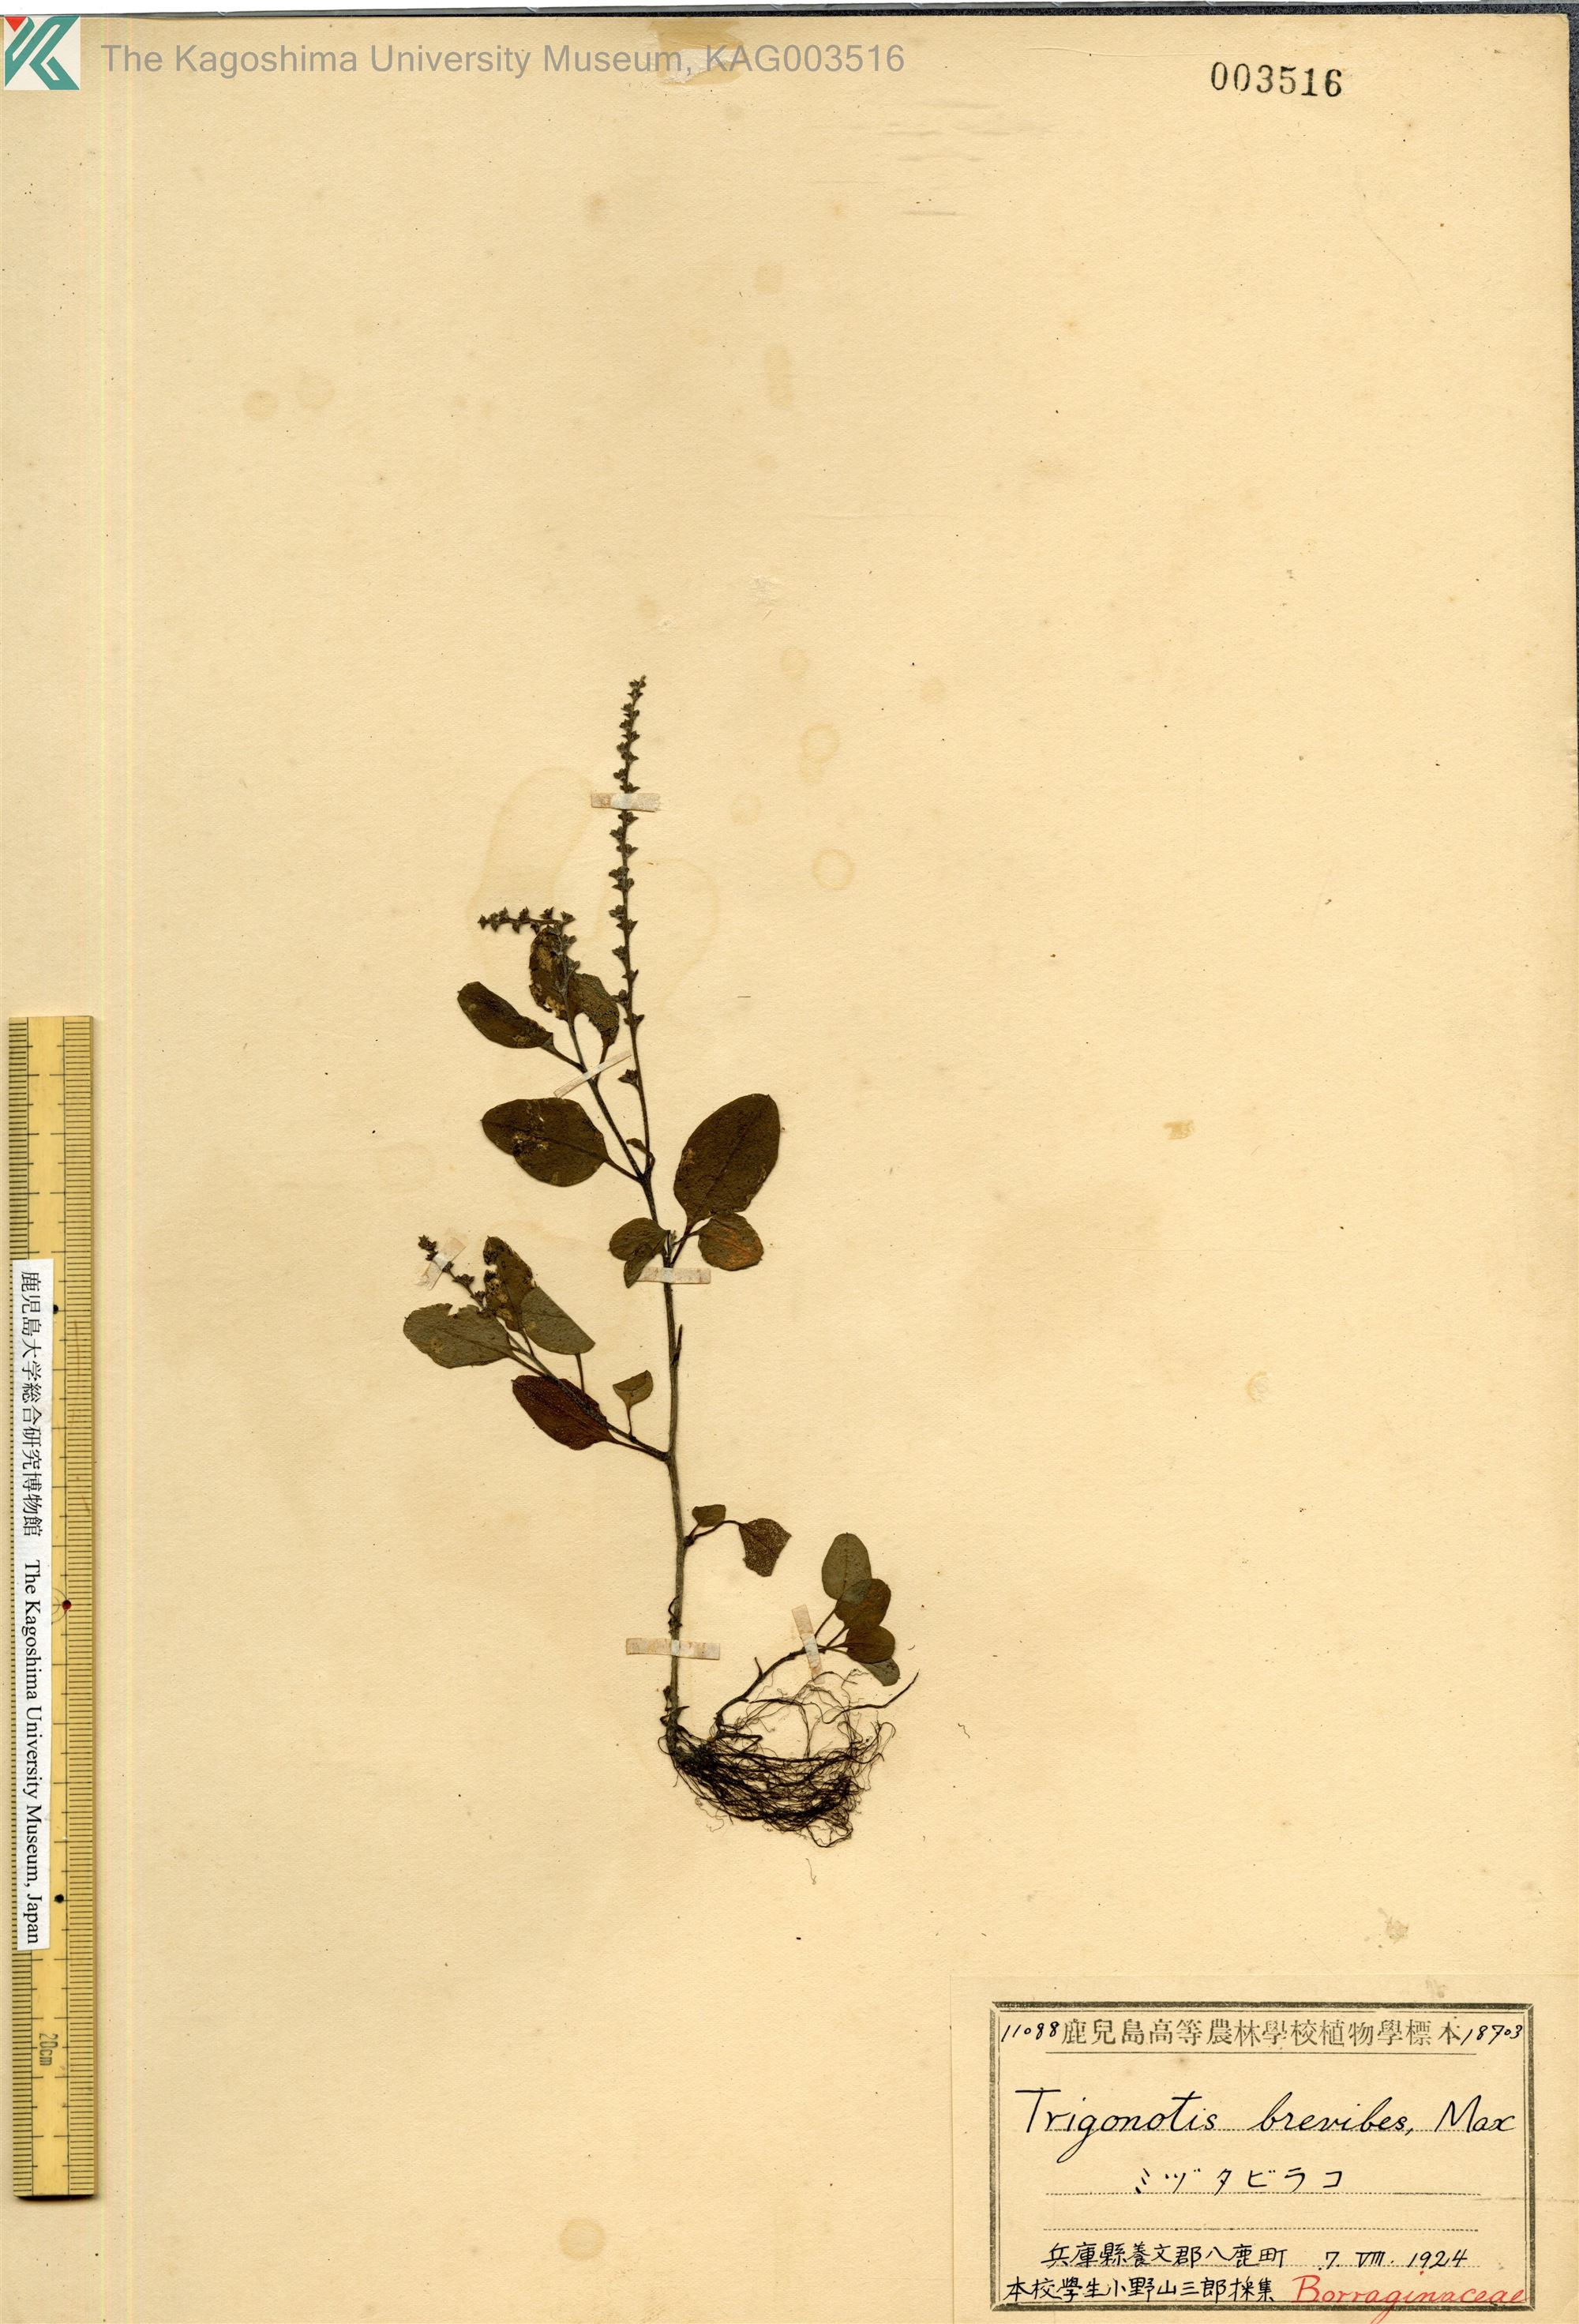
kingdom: Plantae
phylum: Tracheophyta
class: Magnoliopsida
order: Boraginales
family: Boraginaceae
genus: Trigonotis
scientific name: Trigonotis brevipes
